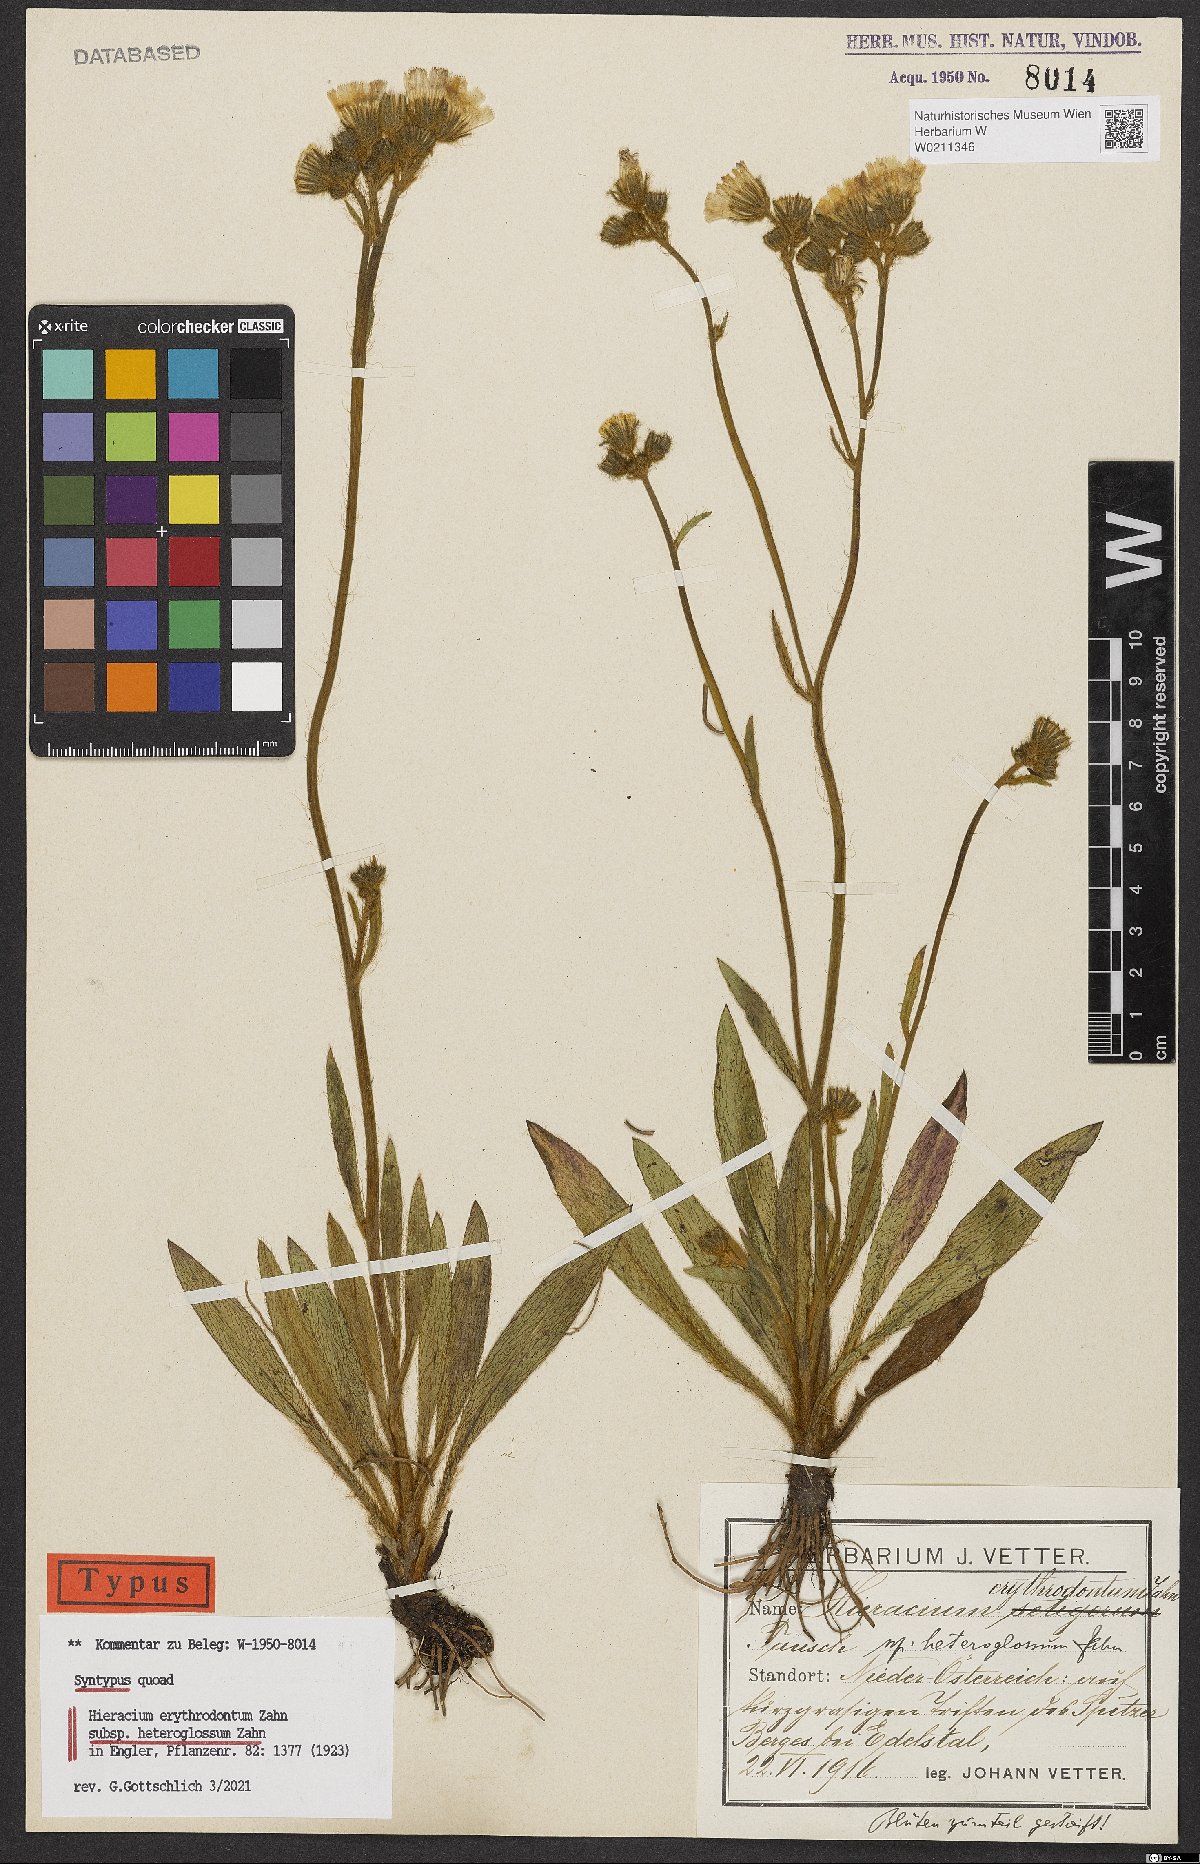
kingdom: Plantae
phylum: Tracheophyta
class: Magnoliopsida
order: Asterales
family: Asteraceae
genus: Pilosella
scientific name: Pilosella erythrodonta
